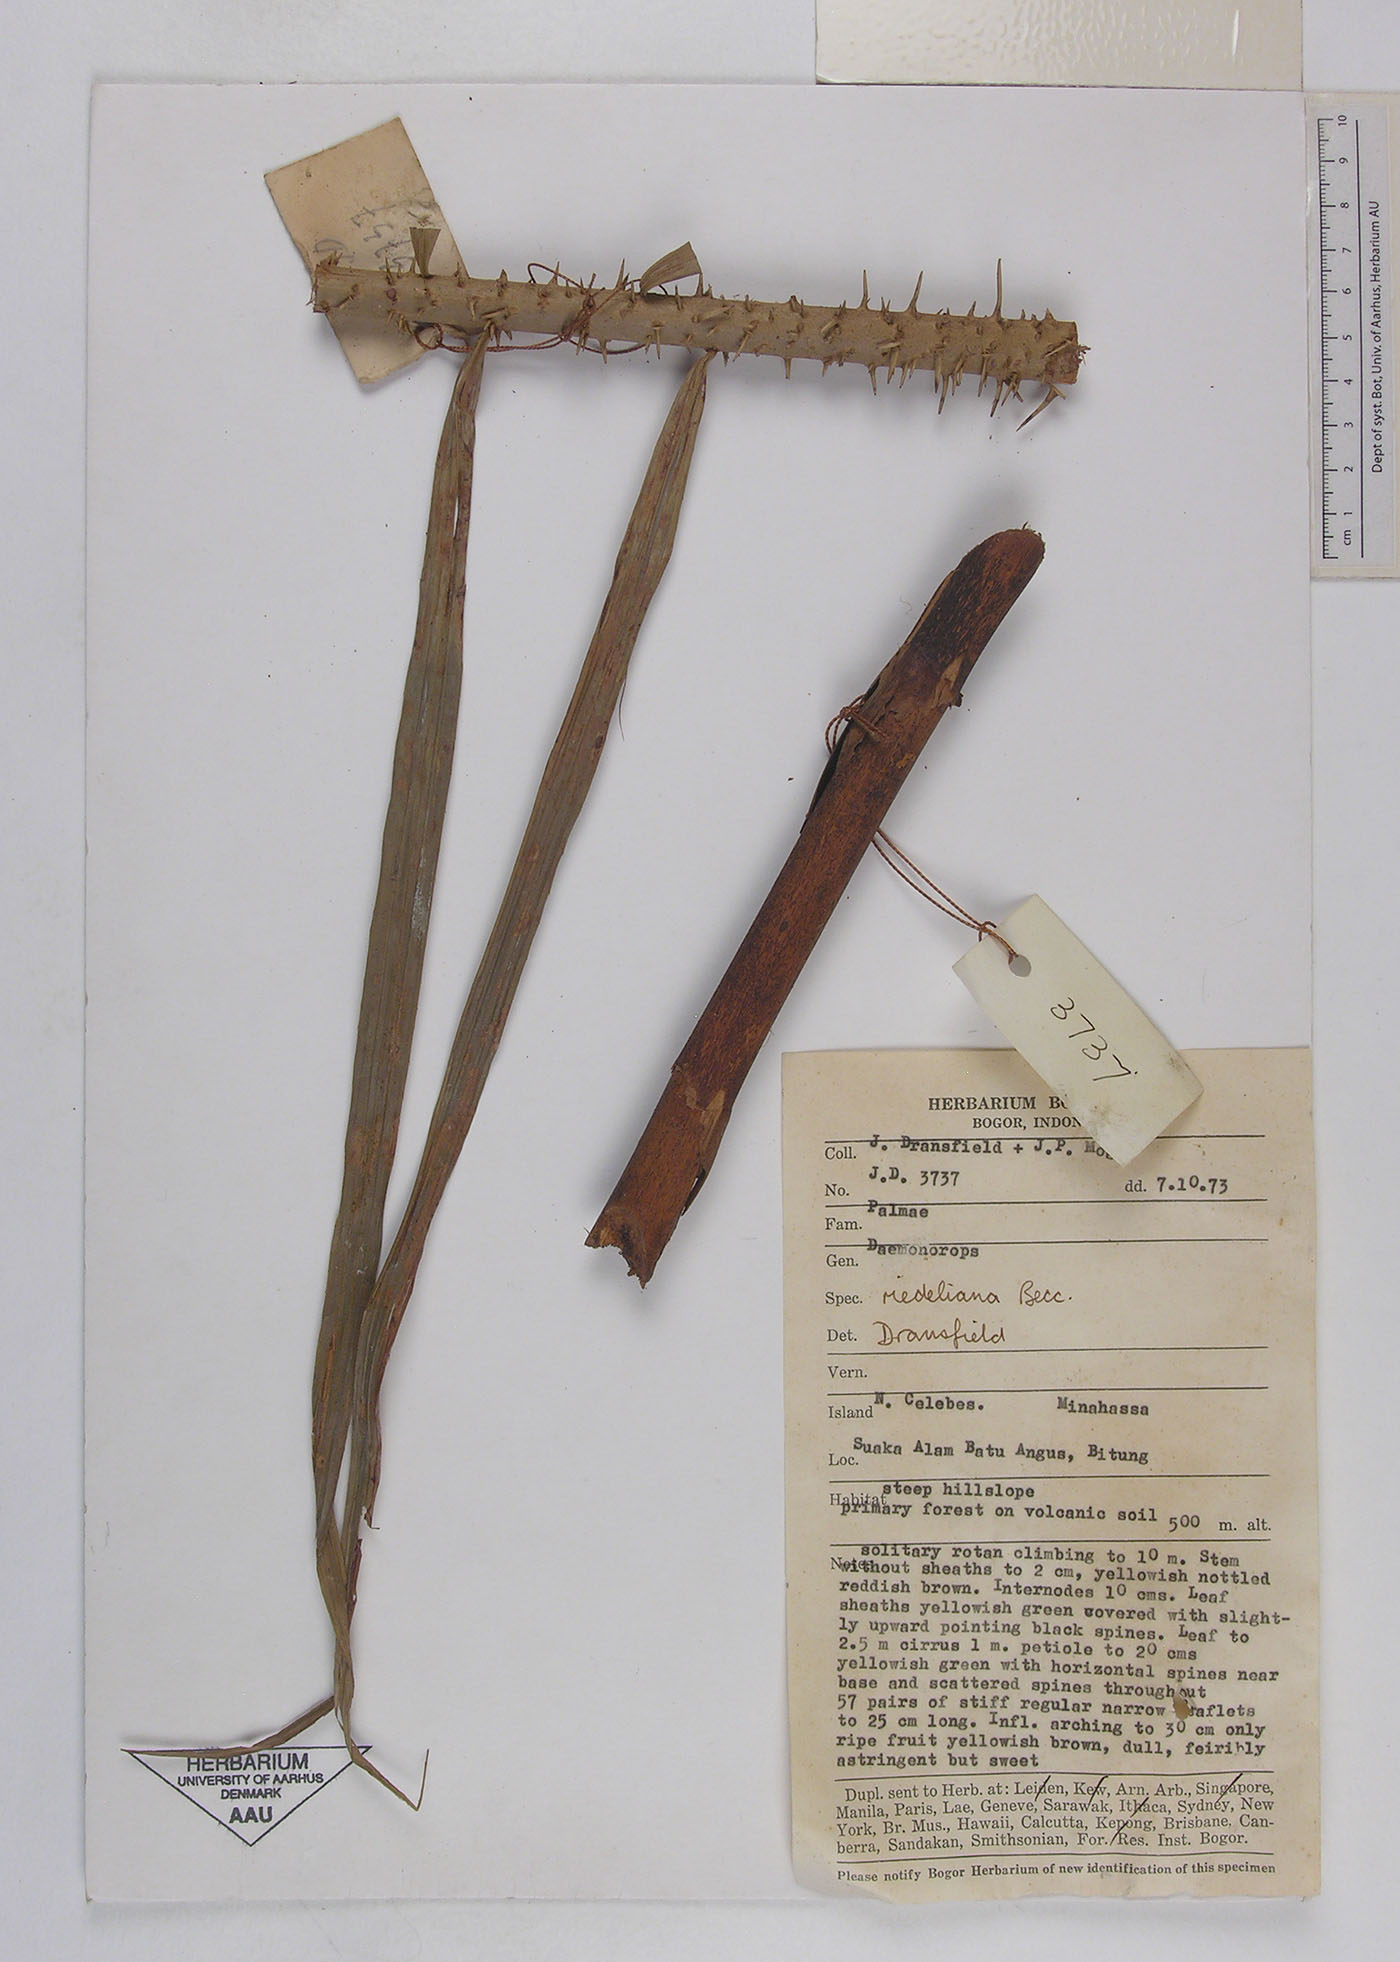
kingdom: Plantae
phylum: Tracheophyta
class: Liliopsida
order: Arecales
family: Arecaceae
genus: Calamus
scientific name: Calamus oblongus
